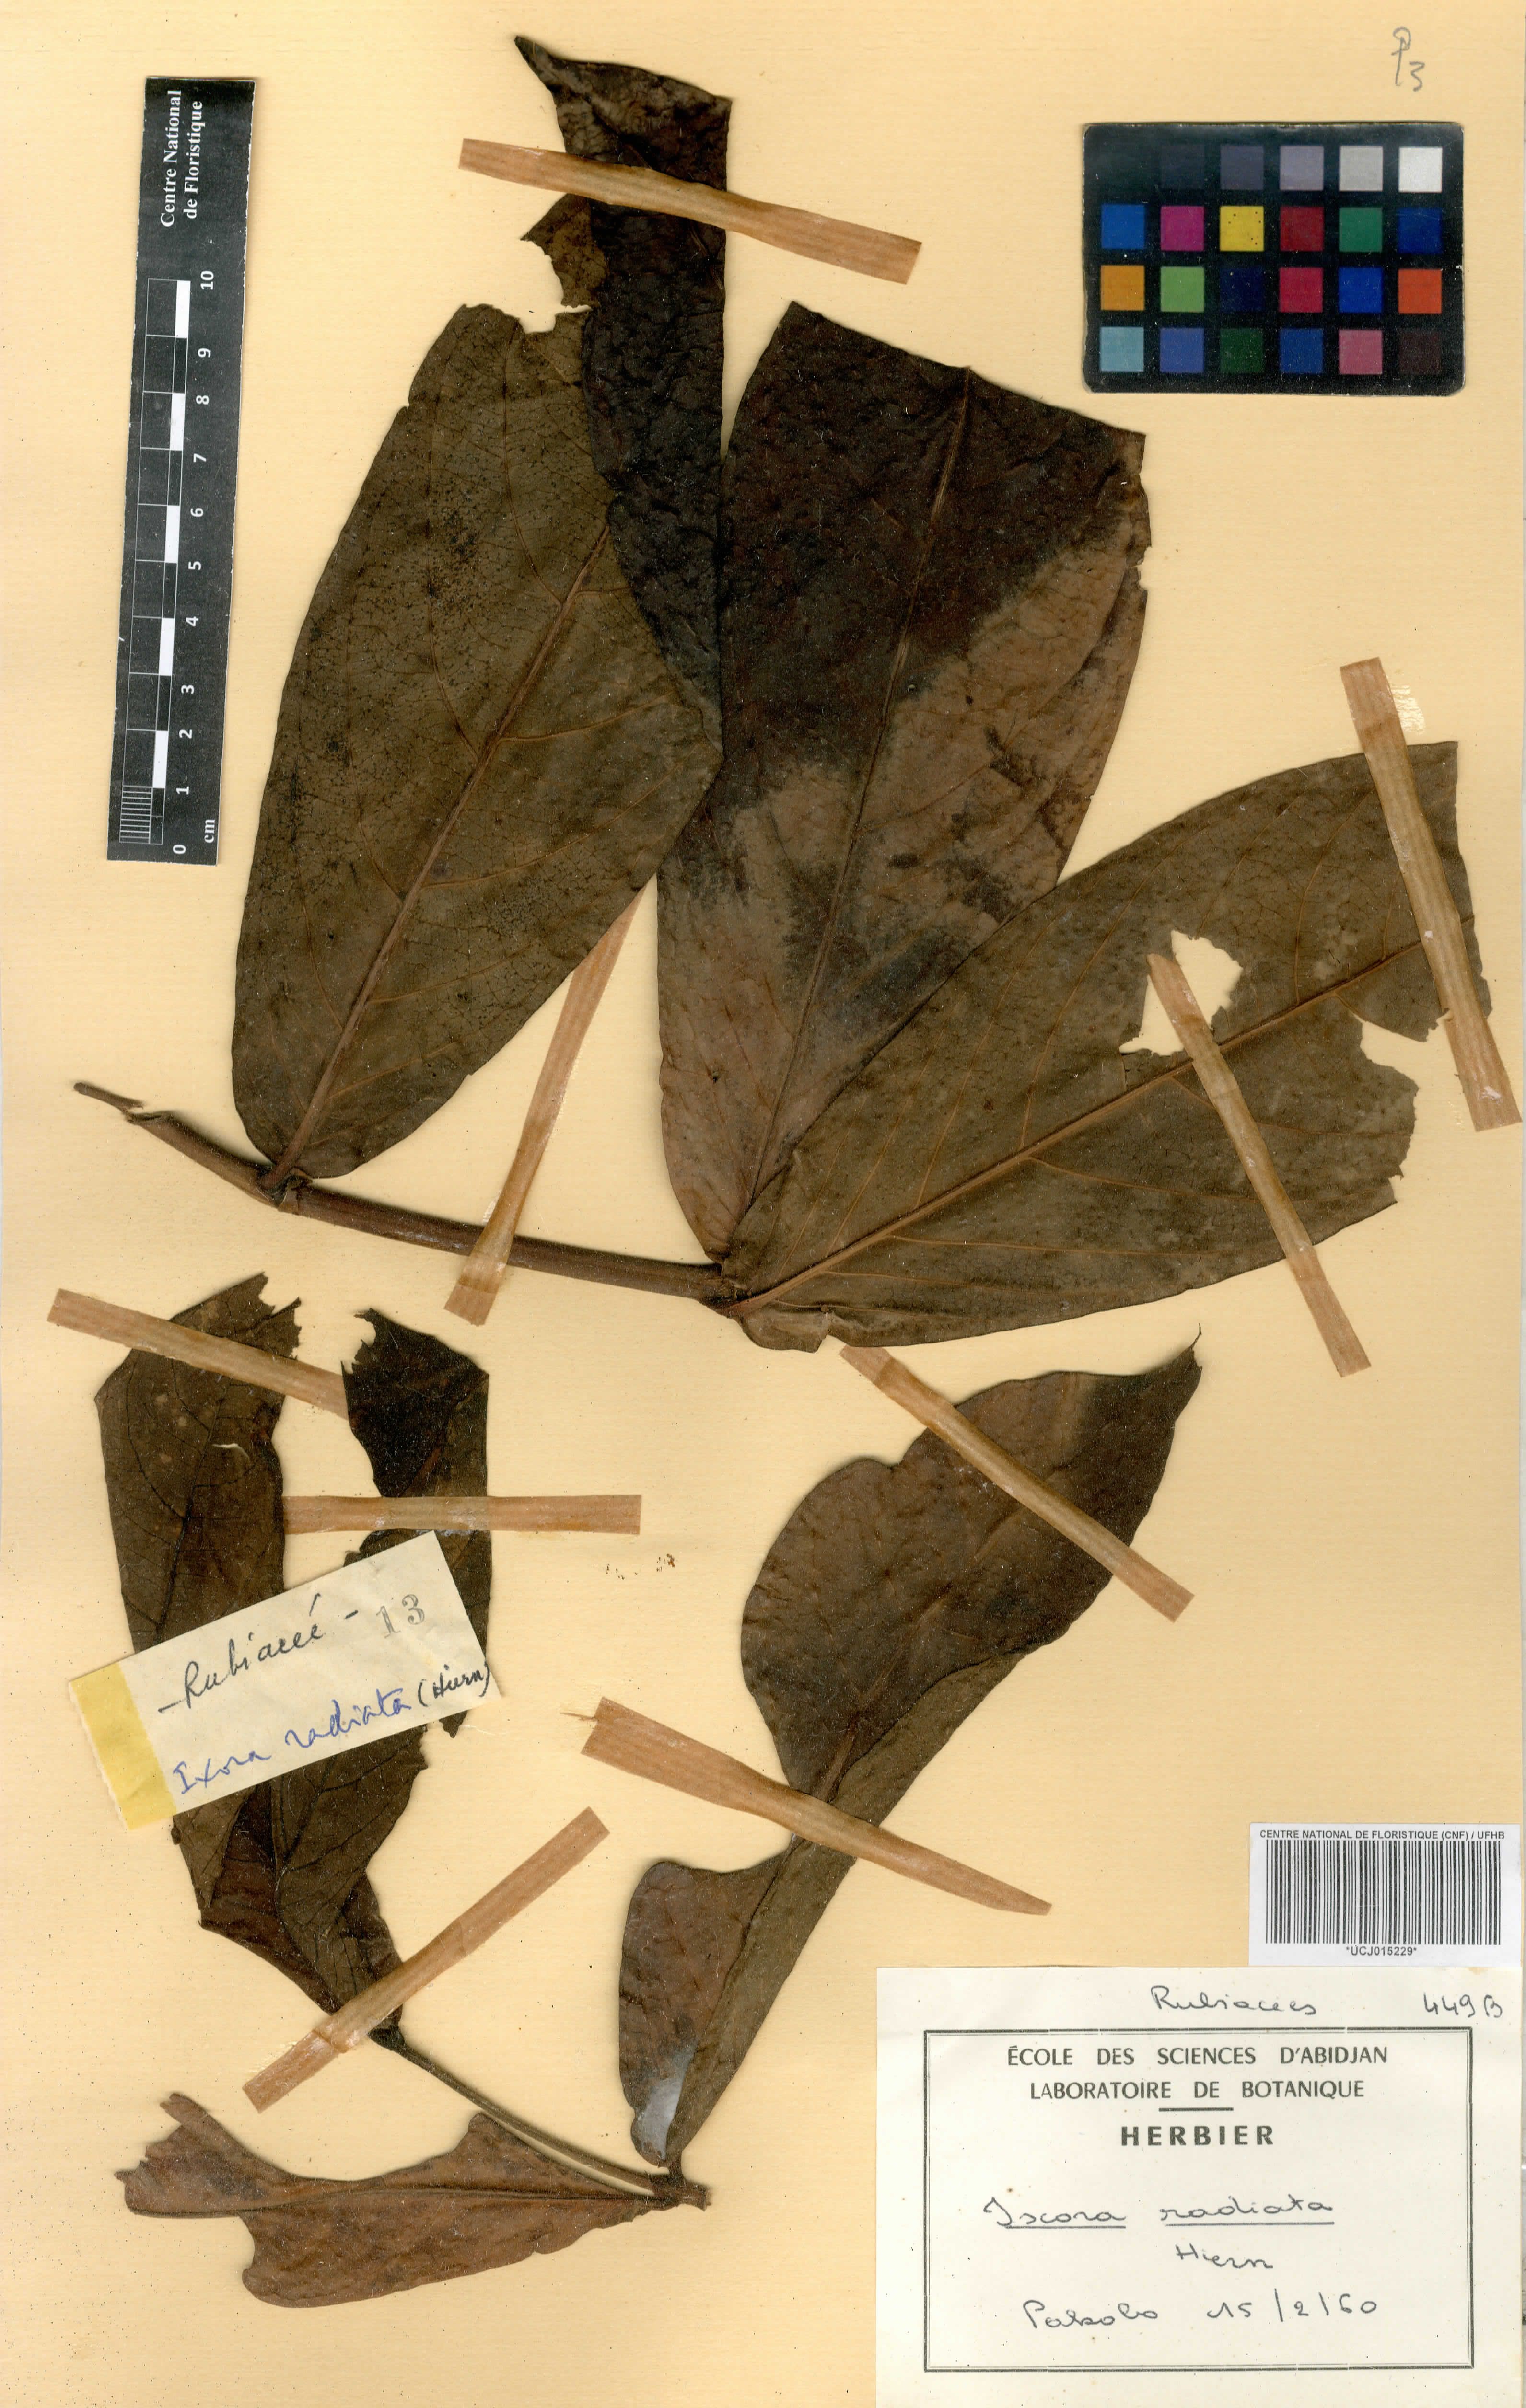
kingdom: Plantae
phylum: Tracheophyta
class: Magnoliopsida
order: Gentianales
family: Rubiaceae
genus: Ixora
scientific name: Ixora brachypoda
